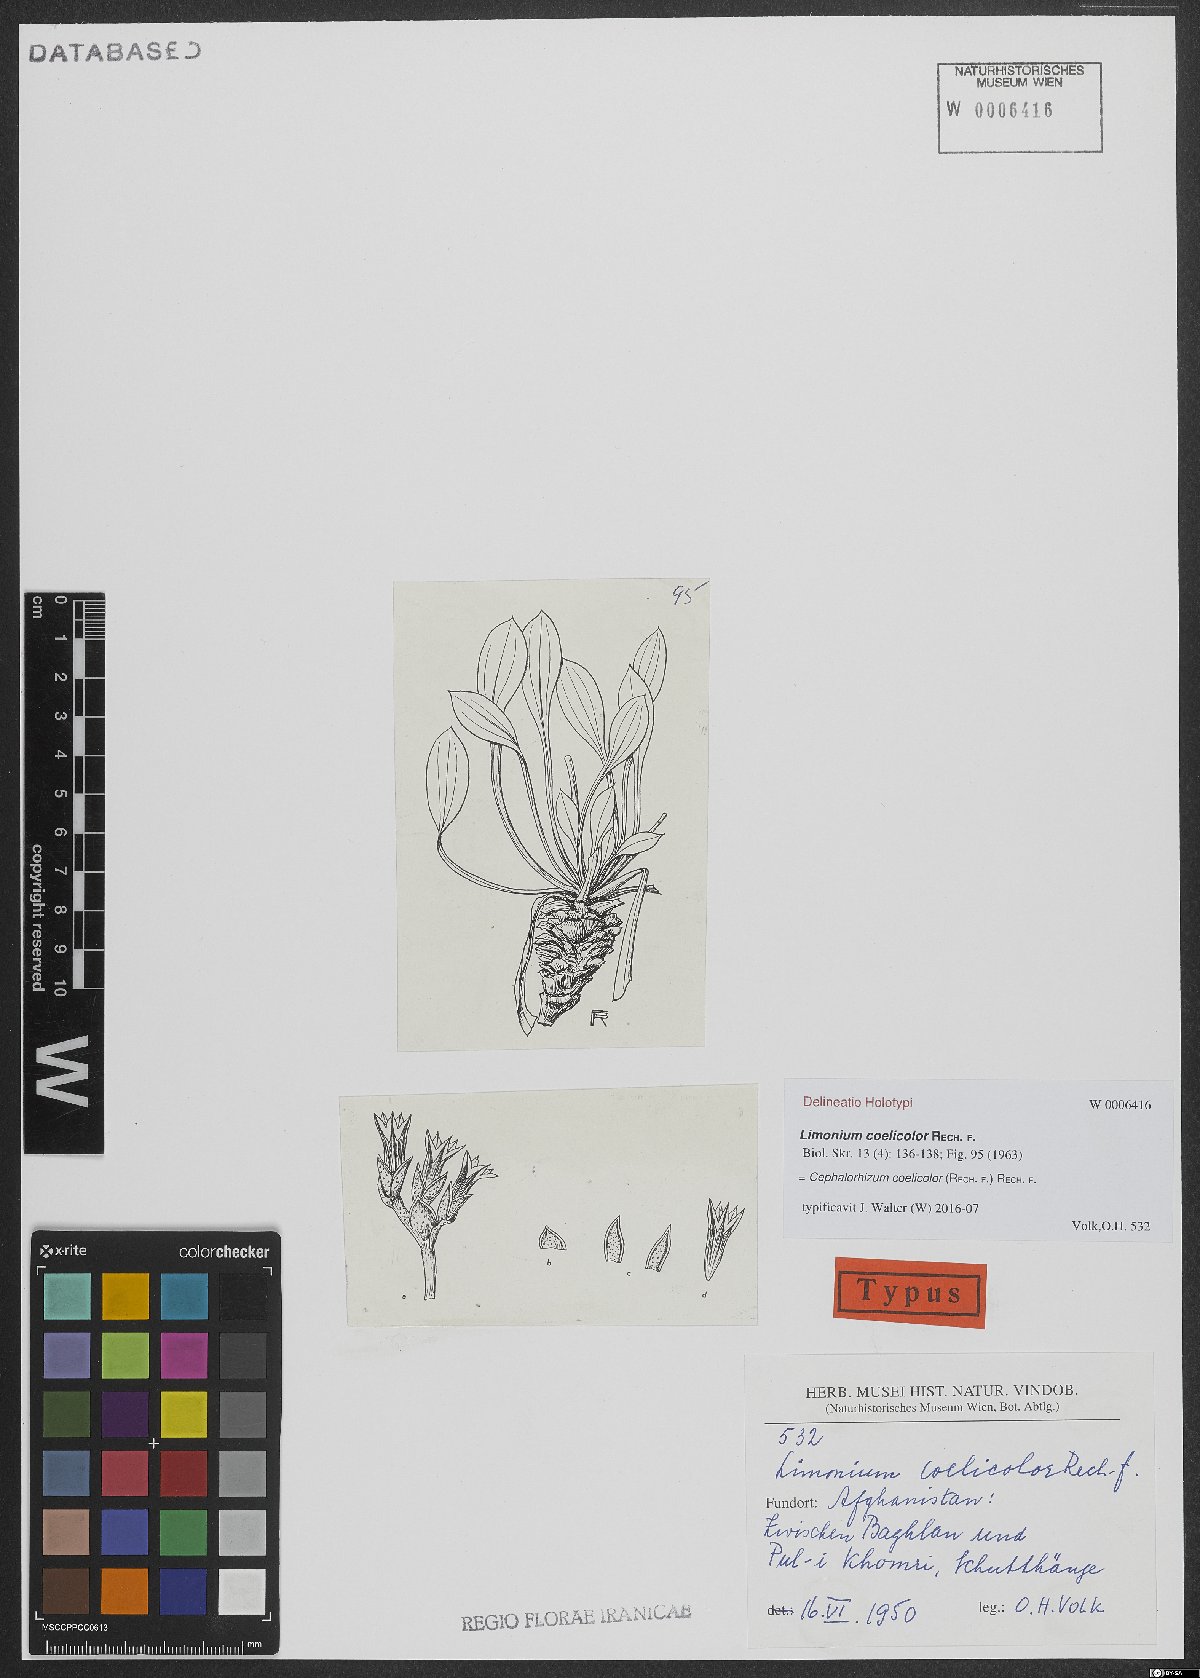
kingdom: Plantae
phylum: Tracheophyta
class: Magnoliopsida
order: Caryophyllales
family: Plumbaginaceae
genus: Cephalorhizum
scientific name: Cephalorhizum coelicolor
